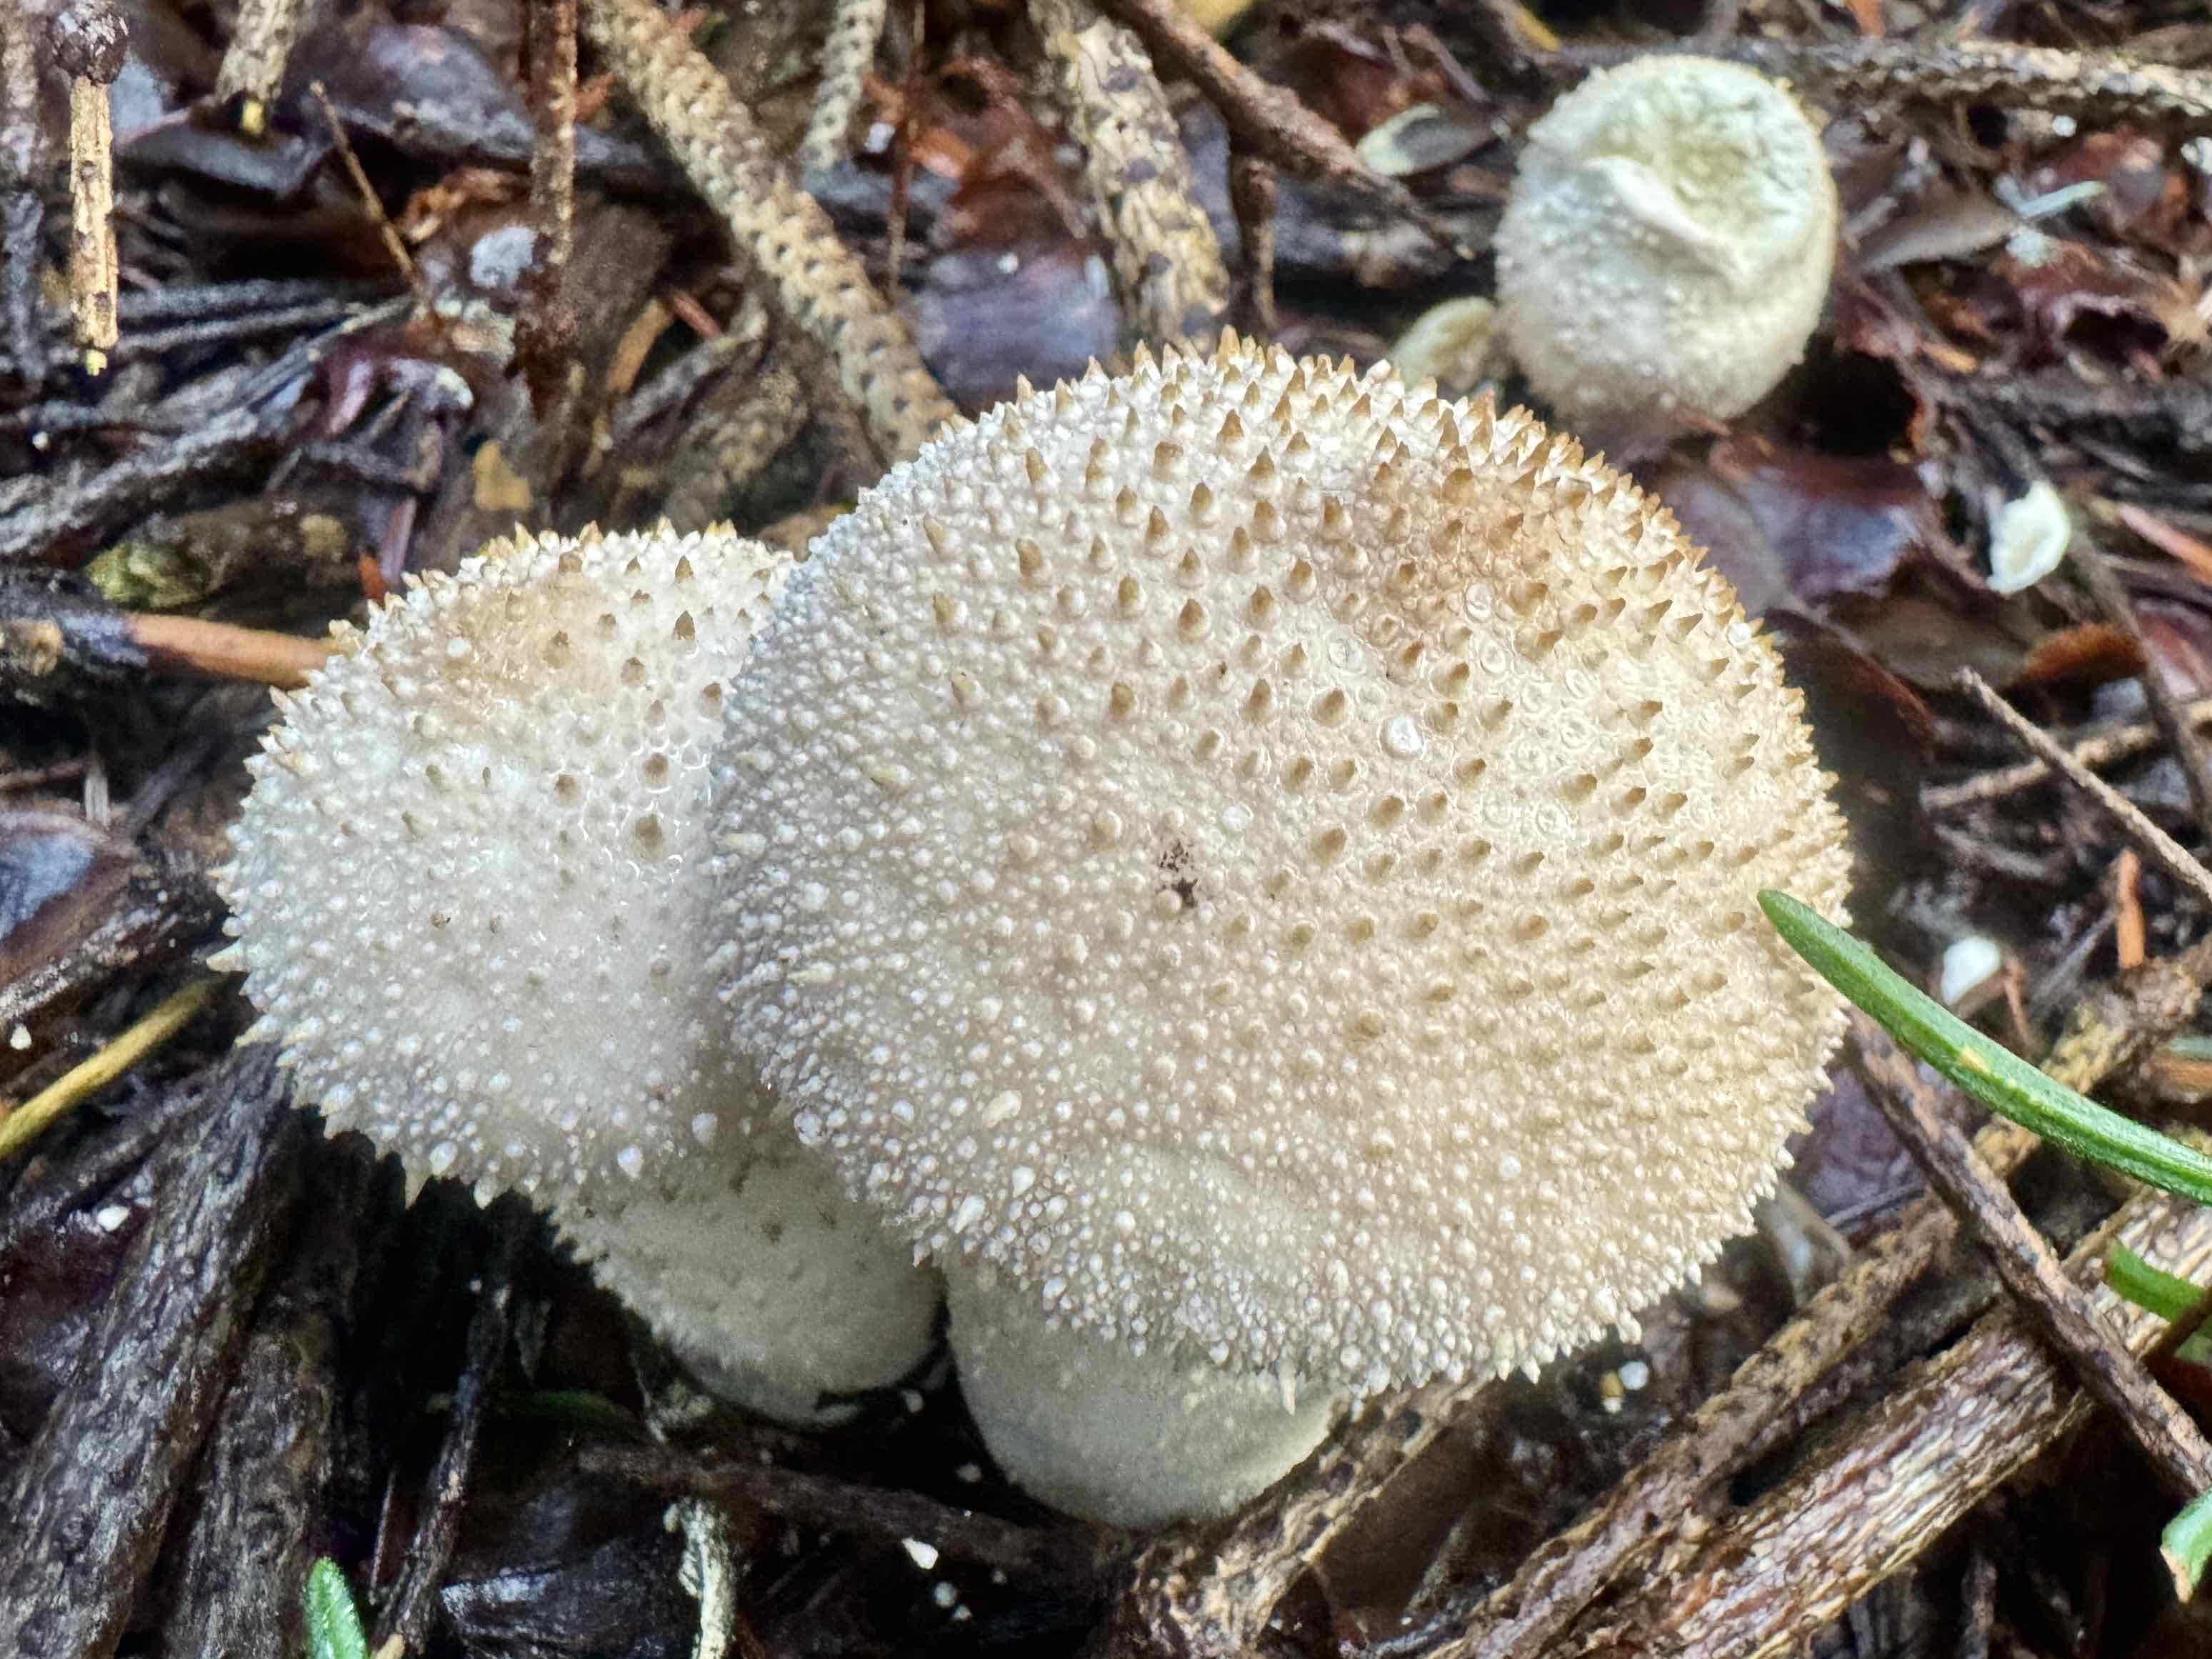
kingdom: Fungi
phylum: Basidiomycota
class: Agaricomycetes
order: Agaricales
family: Lycoperdaceae
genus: Lycoperdon
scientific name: Lycoperdon perlatum
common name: krystal-støvbold
